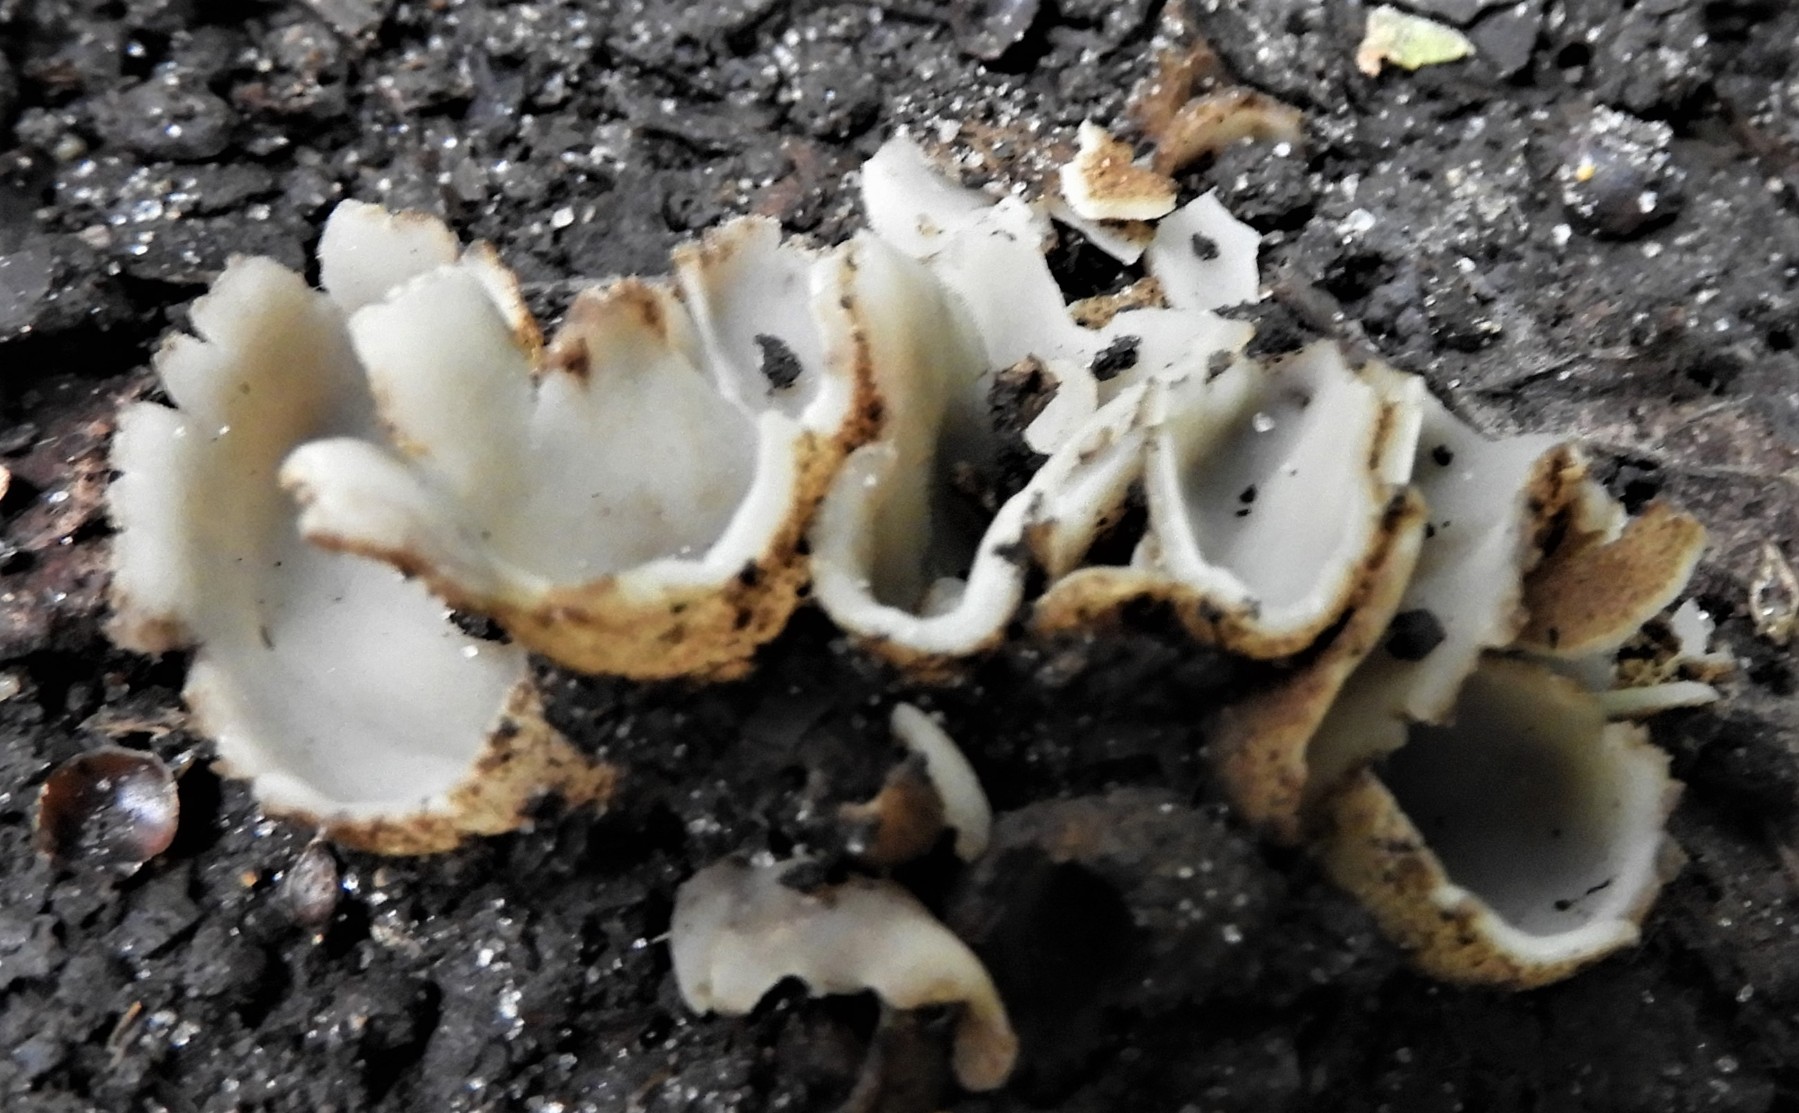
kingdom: Fungi
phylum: Ascomycota
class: Pezizomycetes
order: Pezizales
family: Pyronemataceae
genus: Geopora
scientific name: Geopora
